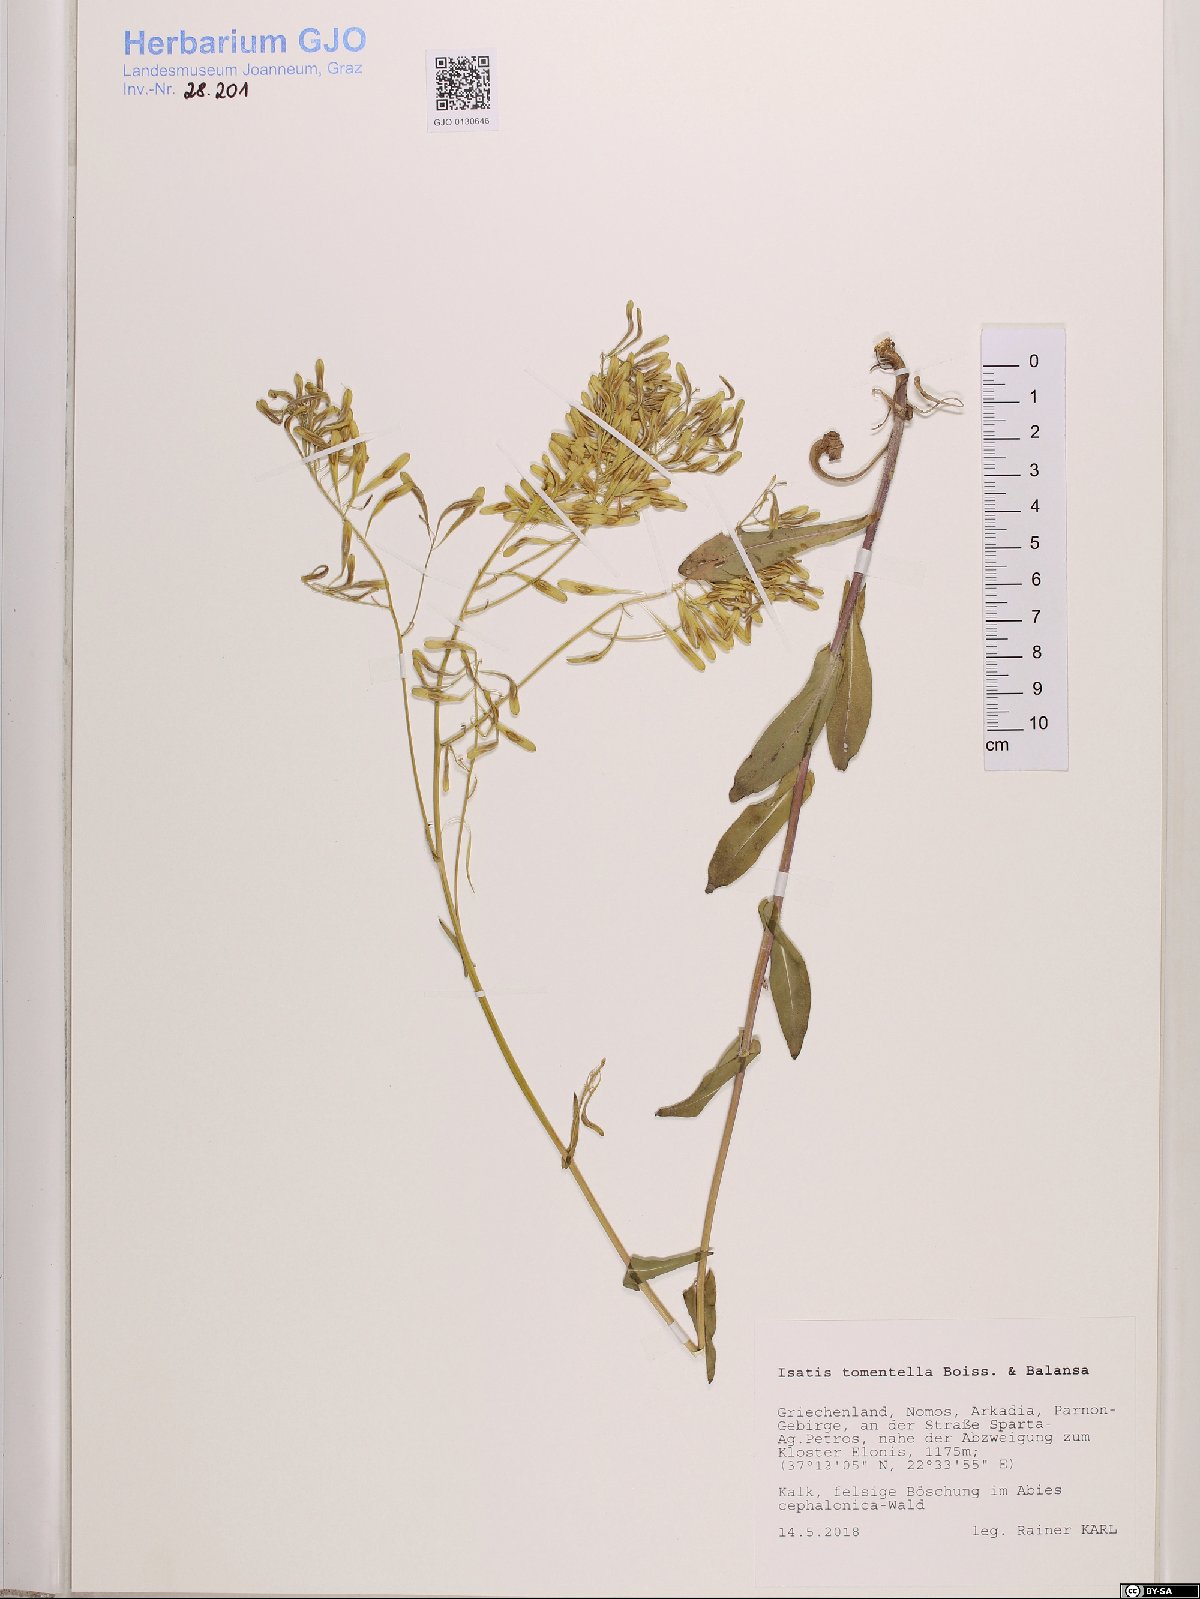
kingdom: Plantae
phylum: Tracheophyta
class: Magnoliopsida
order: Brassicales
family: Brassicaceae
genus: Isatis
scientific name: Isatis tomentella
